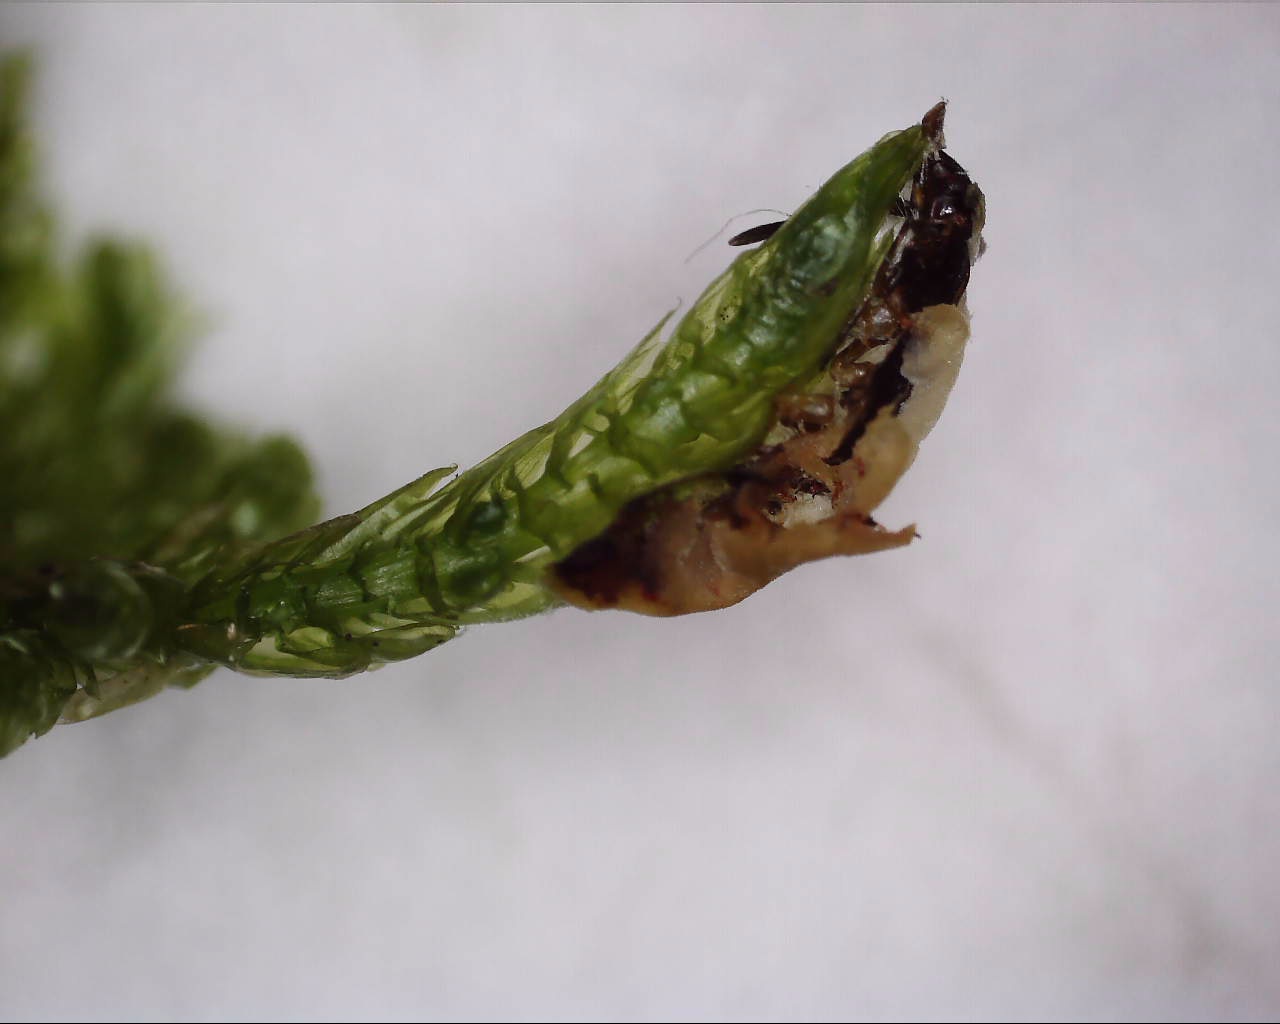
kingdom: Fungi
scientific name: Fungi
